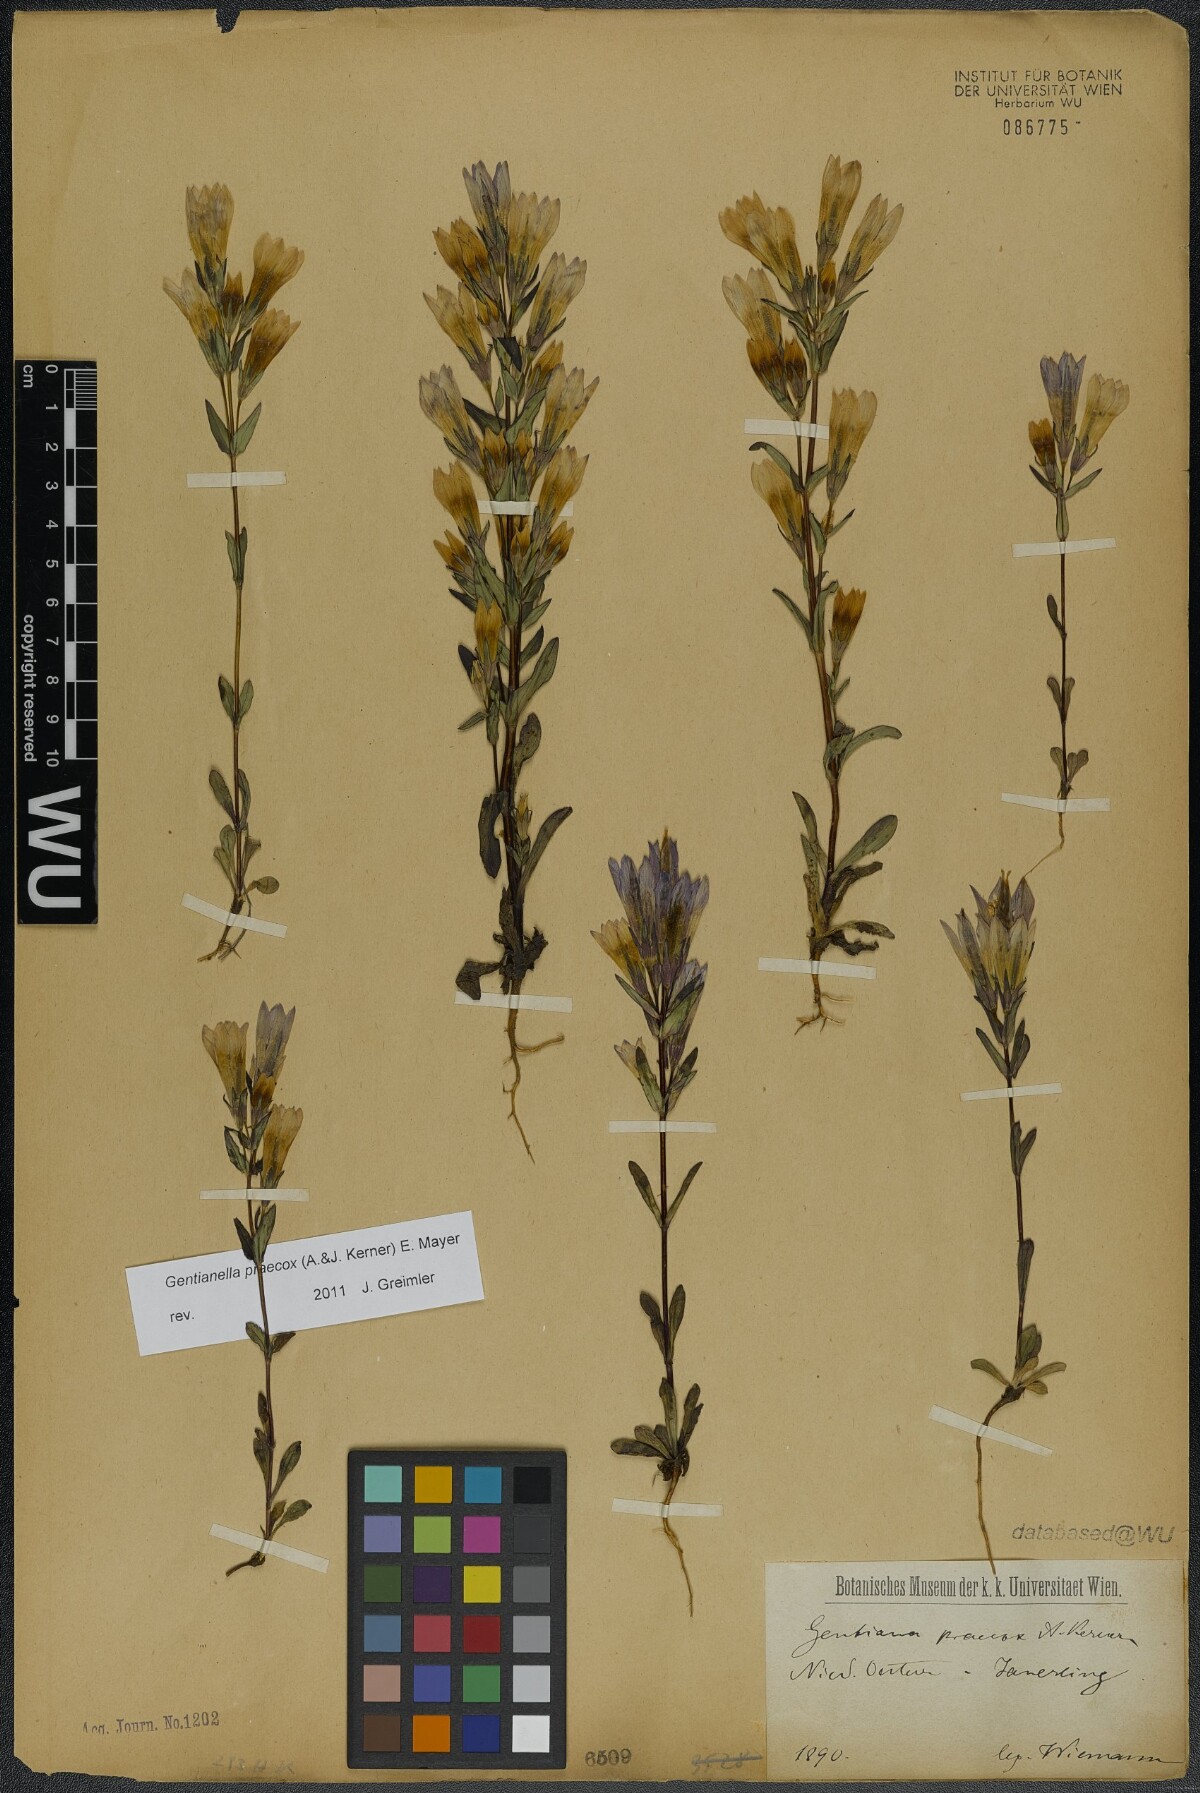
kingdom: Plantae
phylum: Tracheophyta
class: Magnoliopsida
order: Gentianales
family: Gentianaceae
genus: Gentianella
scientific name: Gentianella praecox
